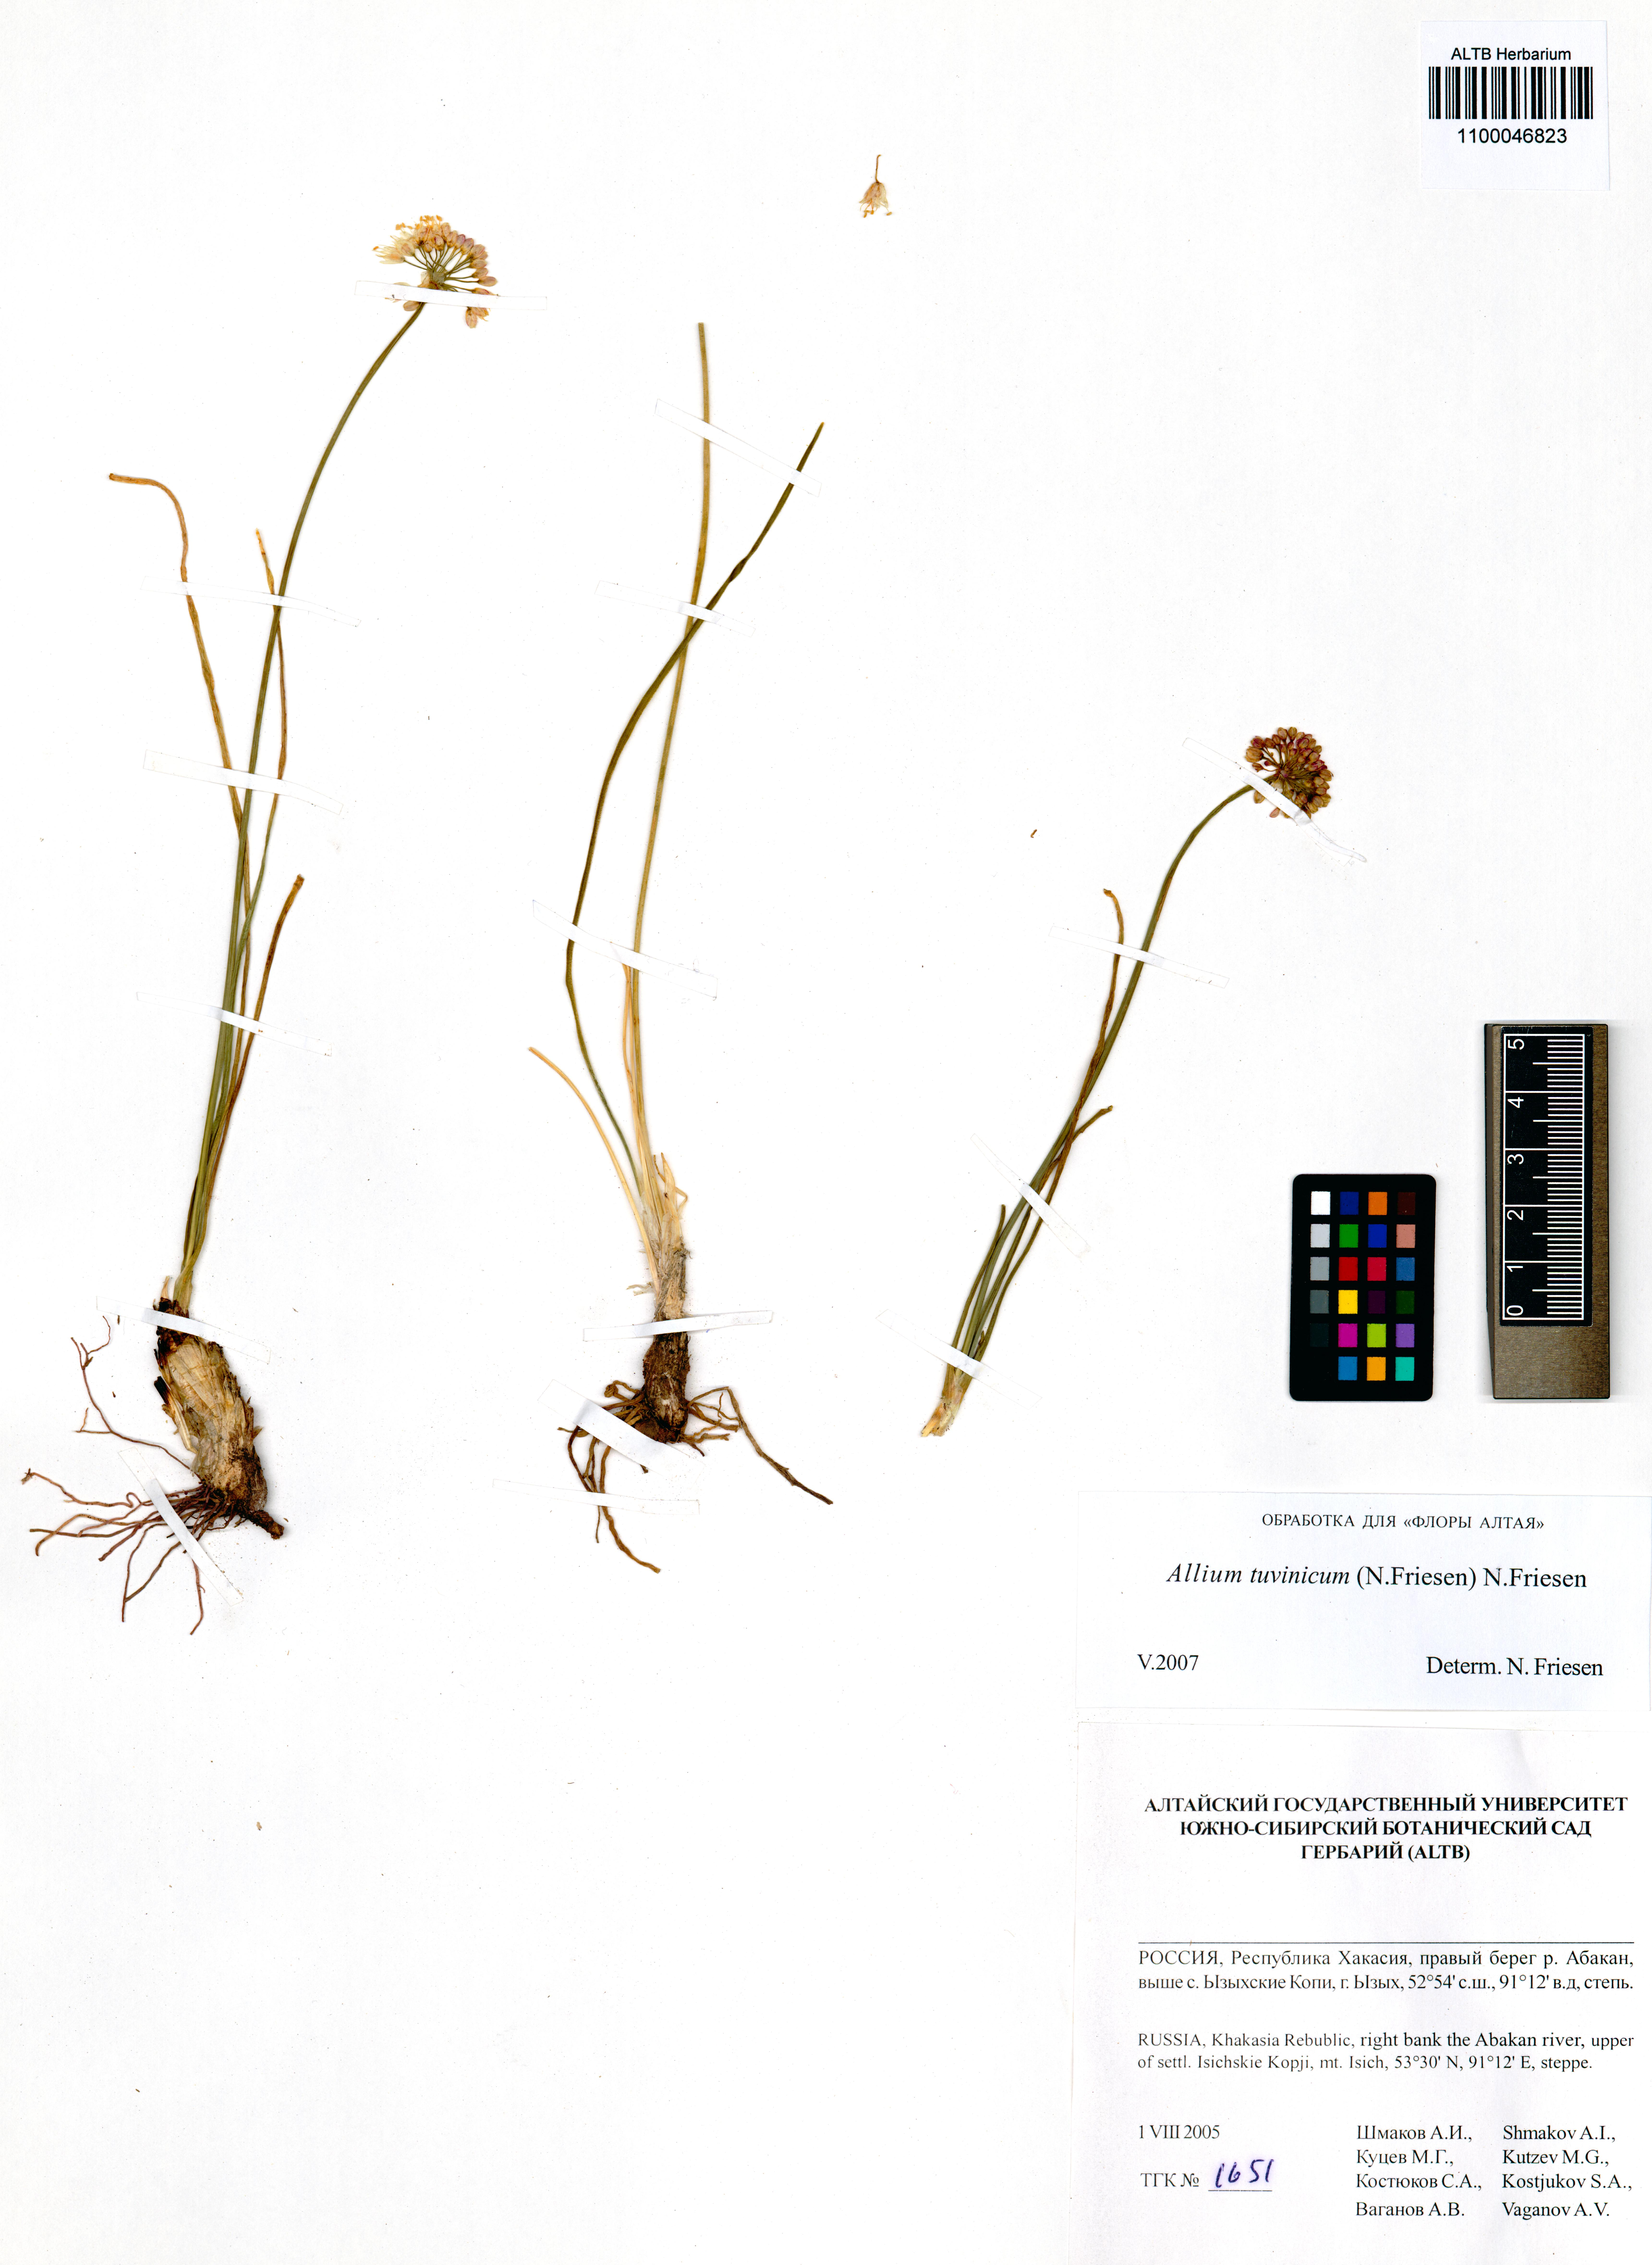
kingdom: Plantae
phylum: Tracheophyta
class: Liliopsida
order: Asparagales
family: Amaryllidaceae
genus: Allium
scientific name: Allium tuvinicum
